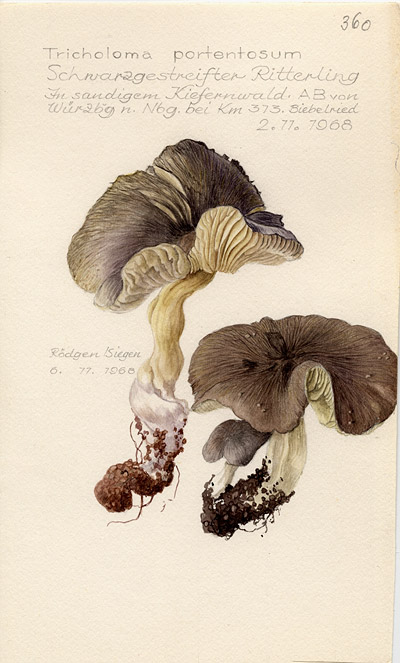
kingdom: Fungi
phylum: Basidiomycota
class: Agaricomycetes
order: Agaricales
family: Tricholomataceae
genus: Tricholoma
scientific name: Tricholoma portentosum
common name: Coalman
